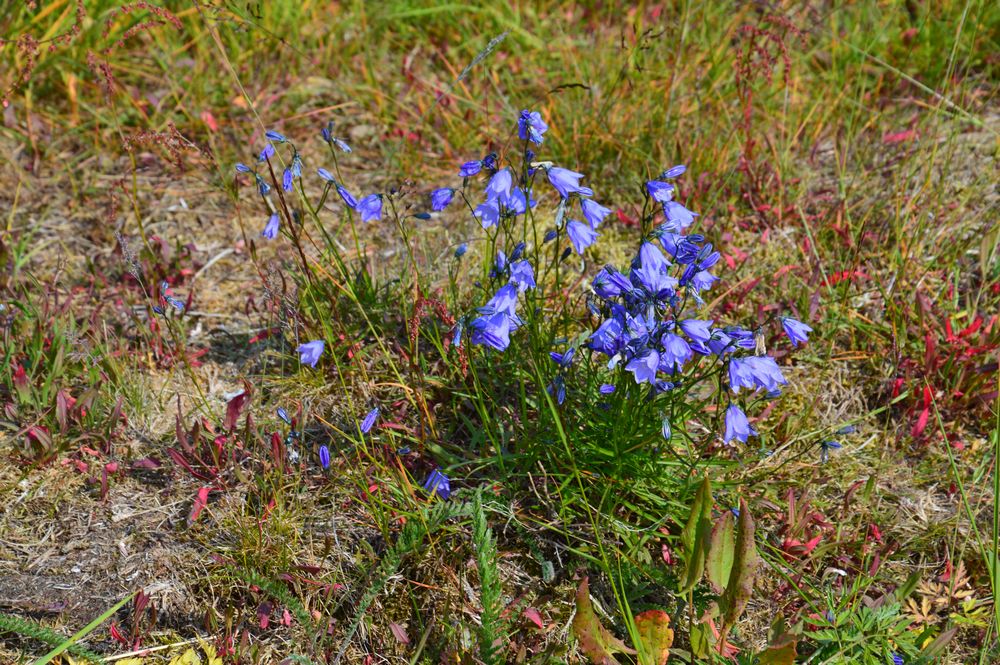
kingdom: Plantae
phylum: Tracheophyta
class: Magnoliopsida
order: Asterales
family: Campanulaceae
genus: Campanula
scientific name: Campanula rotundifolia
